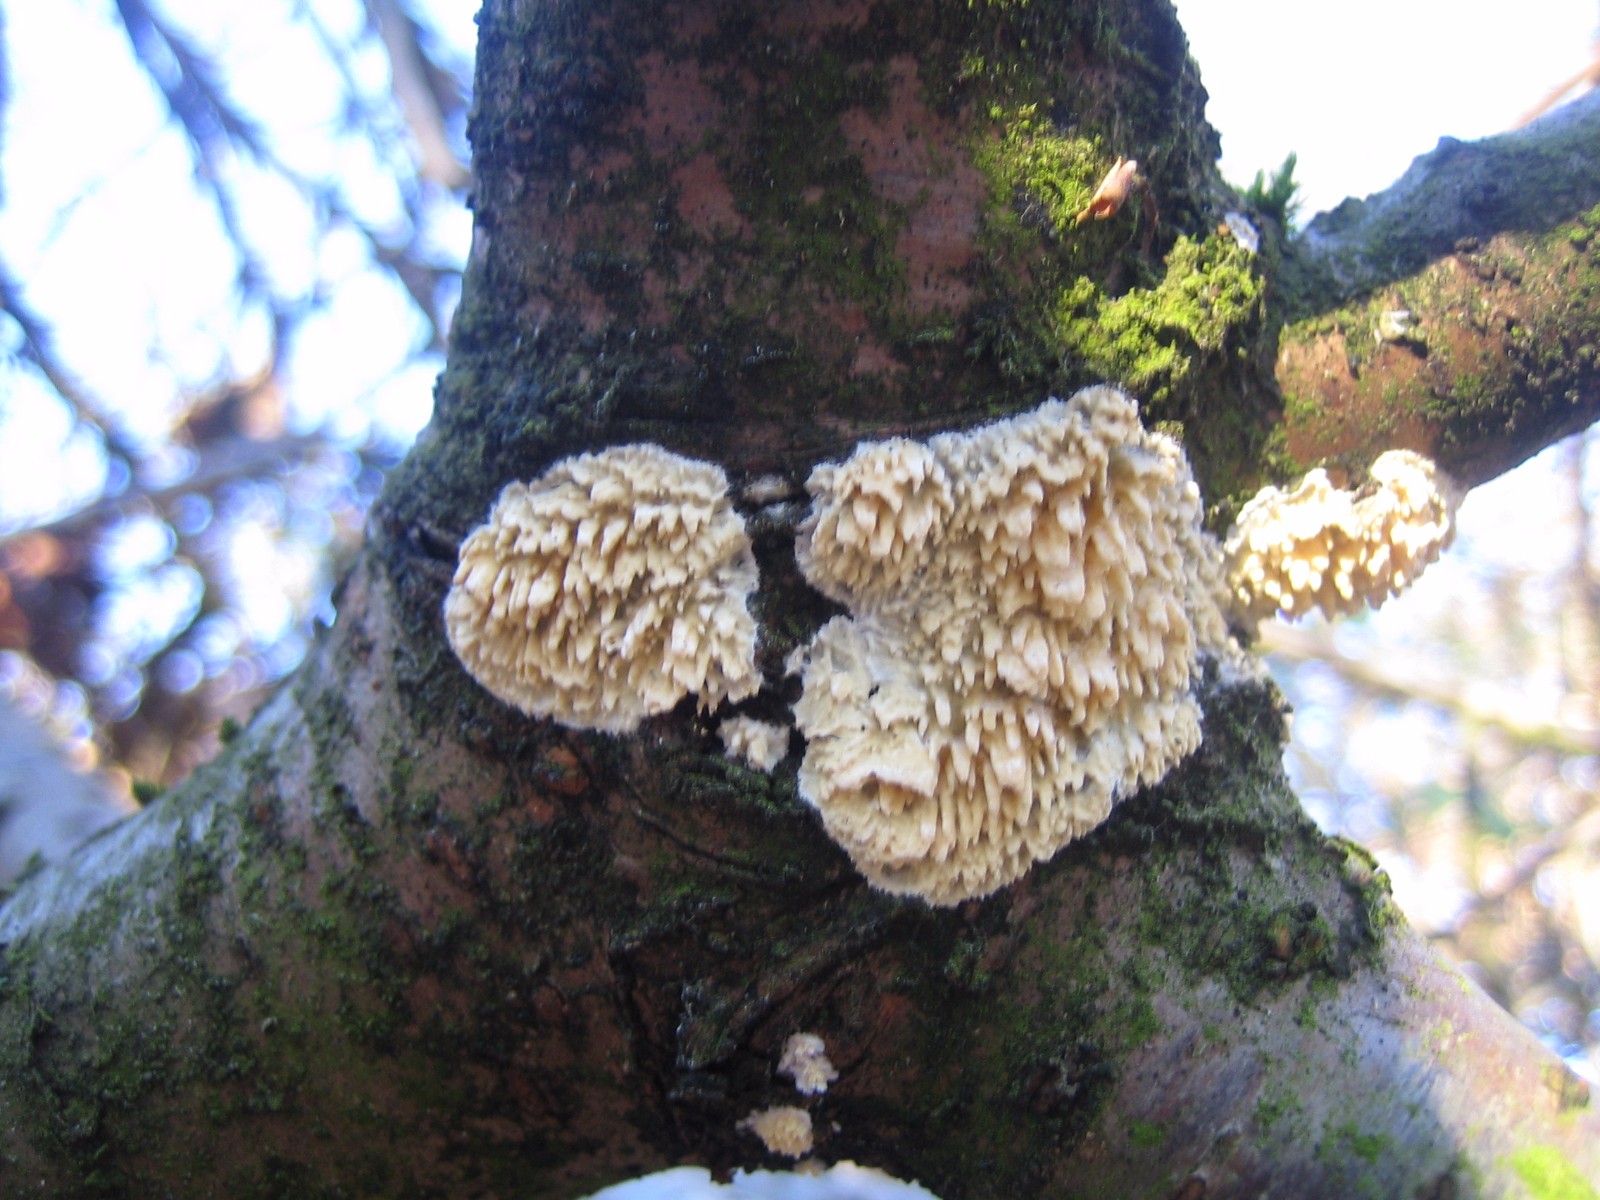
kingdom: Fungi
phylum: Basidiomycota
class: Agaricomycetes
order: Hymenochaetales
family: Schizoporaceae
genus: Xylodon
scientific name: Xylodon radula
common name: grovtandet kalkskind
